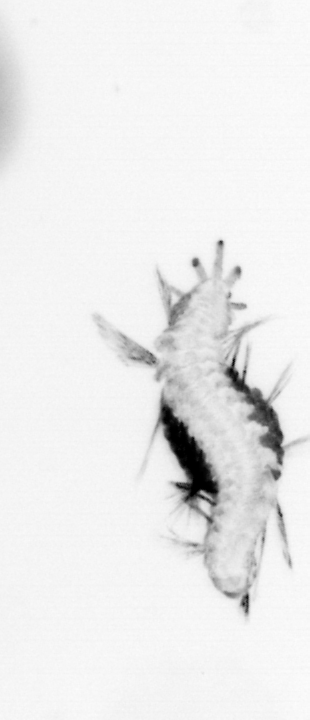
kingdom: Animalia
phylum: Annelida
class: Polychaeta
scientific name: Polychaeta
